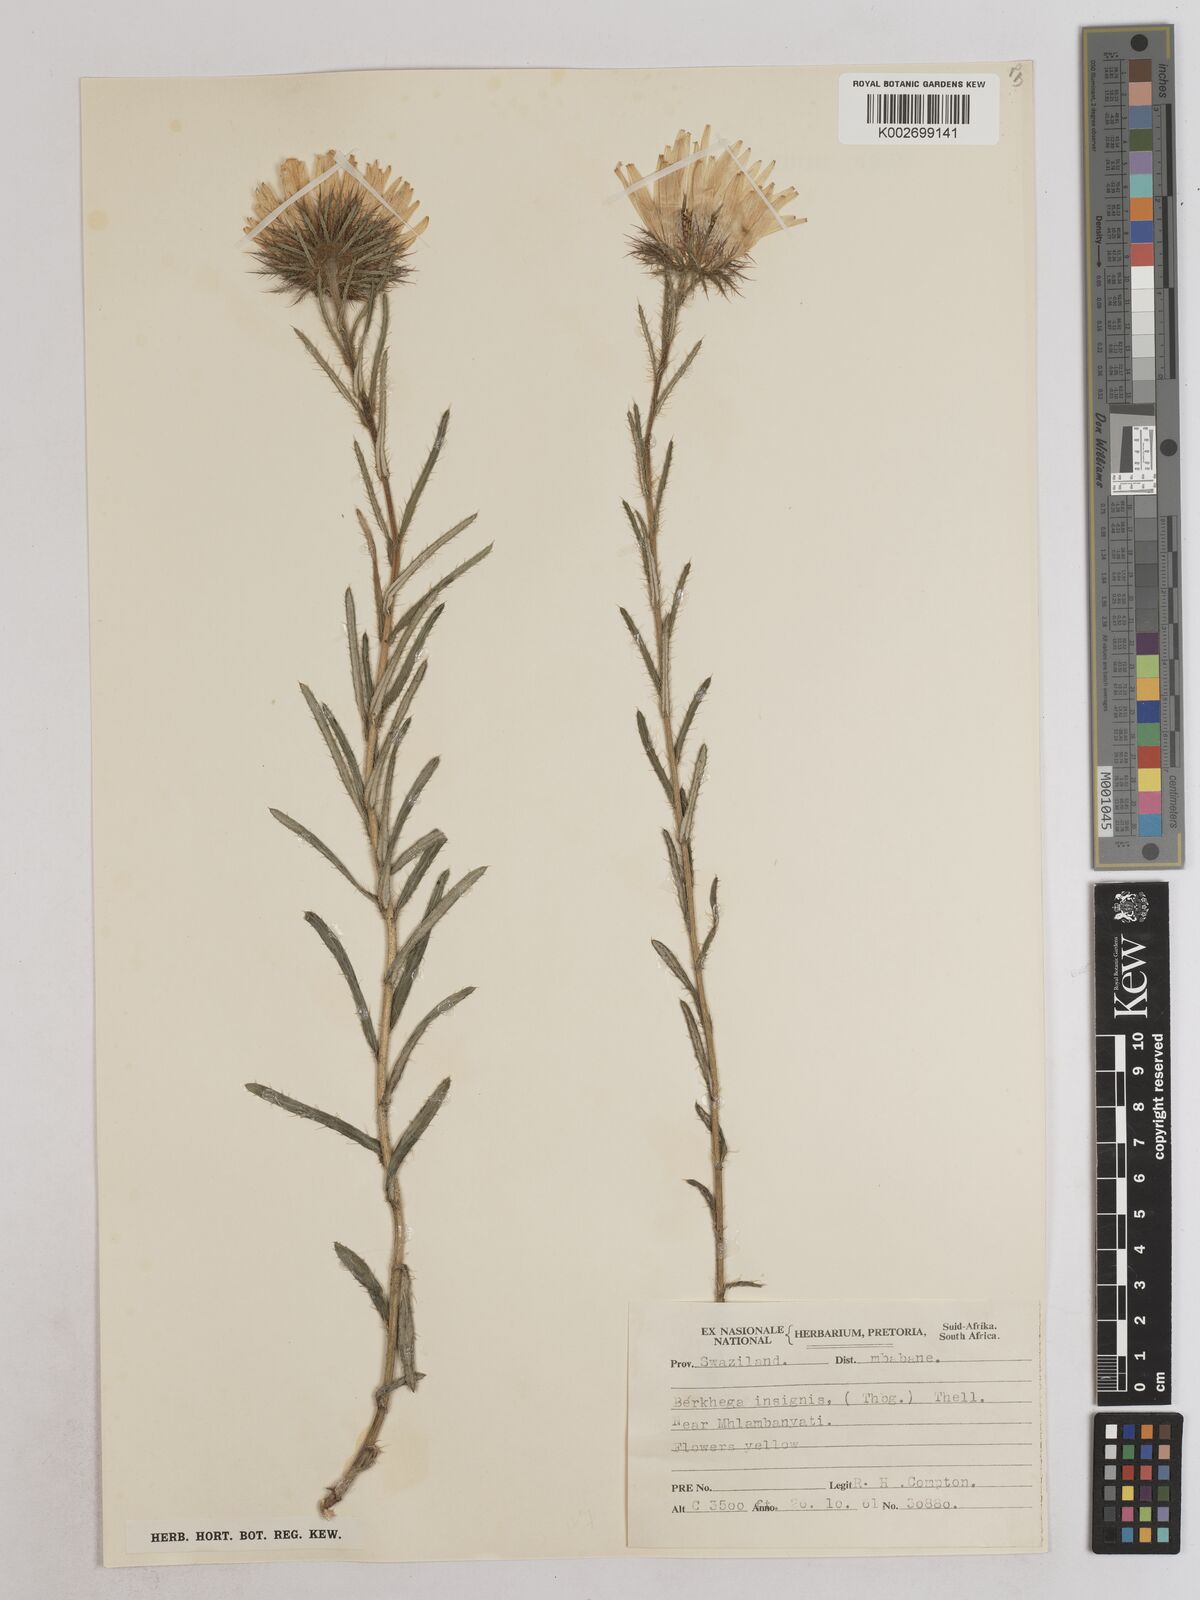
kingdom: Plantae
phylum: Tracheophyta
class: Magnoliopsida
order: Asterales
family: Asteraceae
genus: Berkheya
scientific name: Berkheya insignis
